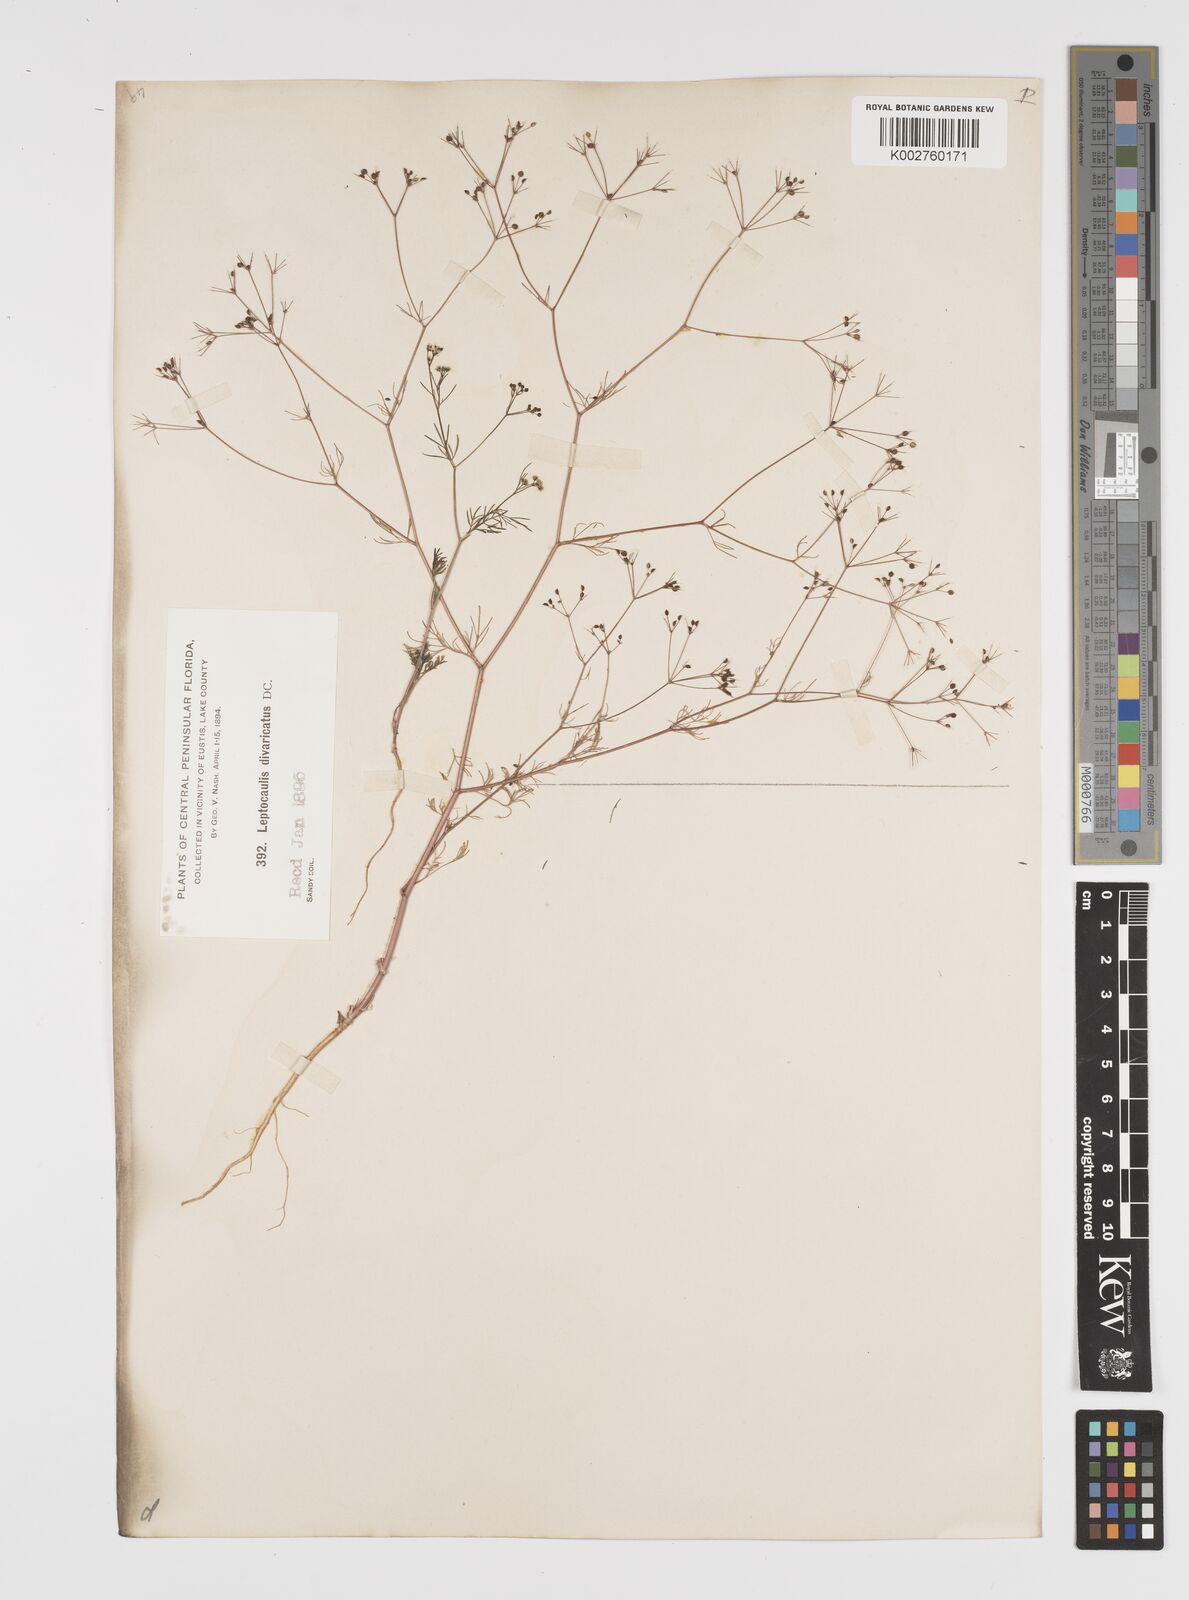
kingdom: Plantae
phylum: Tracheophyta
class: Magnoliopsida
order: Apiales
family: Apiaceae
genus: Spermolepis
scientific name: Spermolepis divaricata
